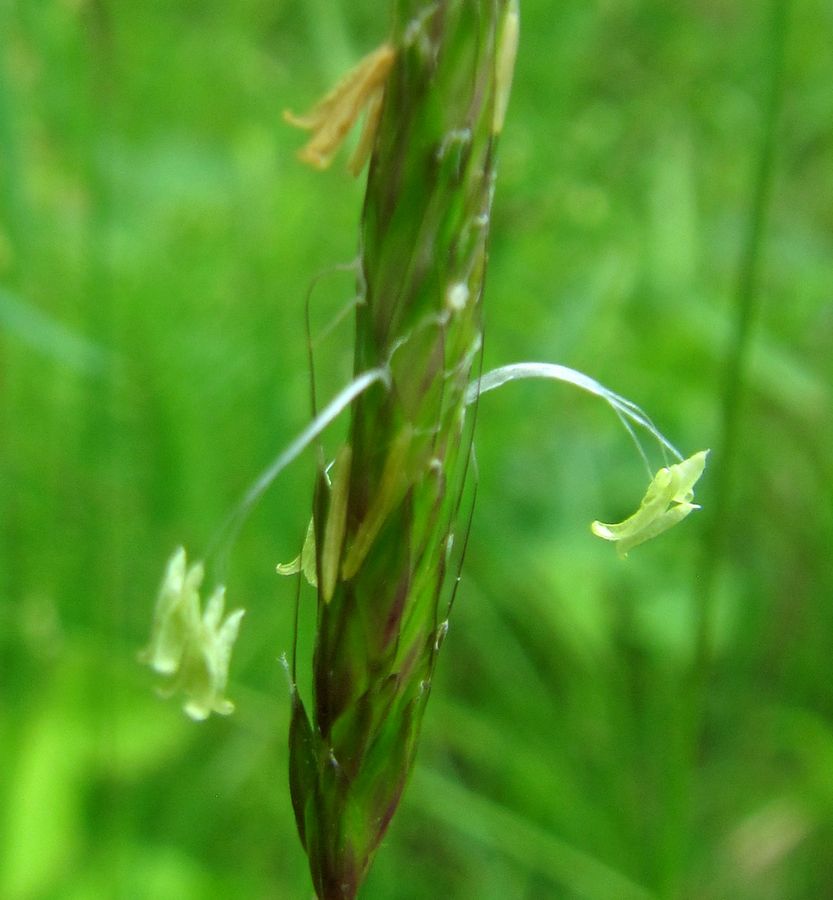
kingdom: Plantae
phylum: Tracheophyta
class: Liliopsida
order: Poales
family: Poaceae
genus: Alopecurus
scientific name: Alopecurus myosuroides
